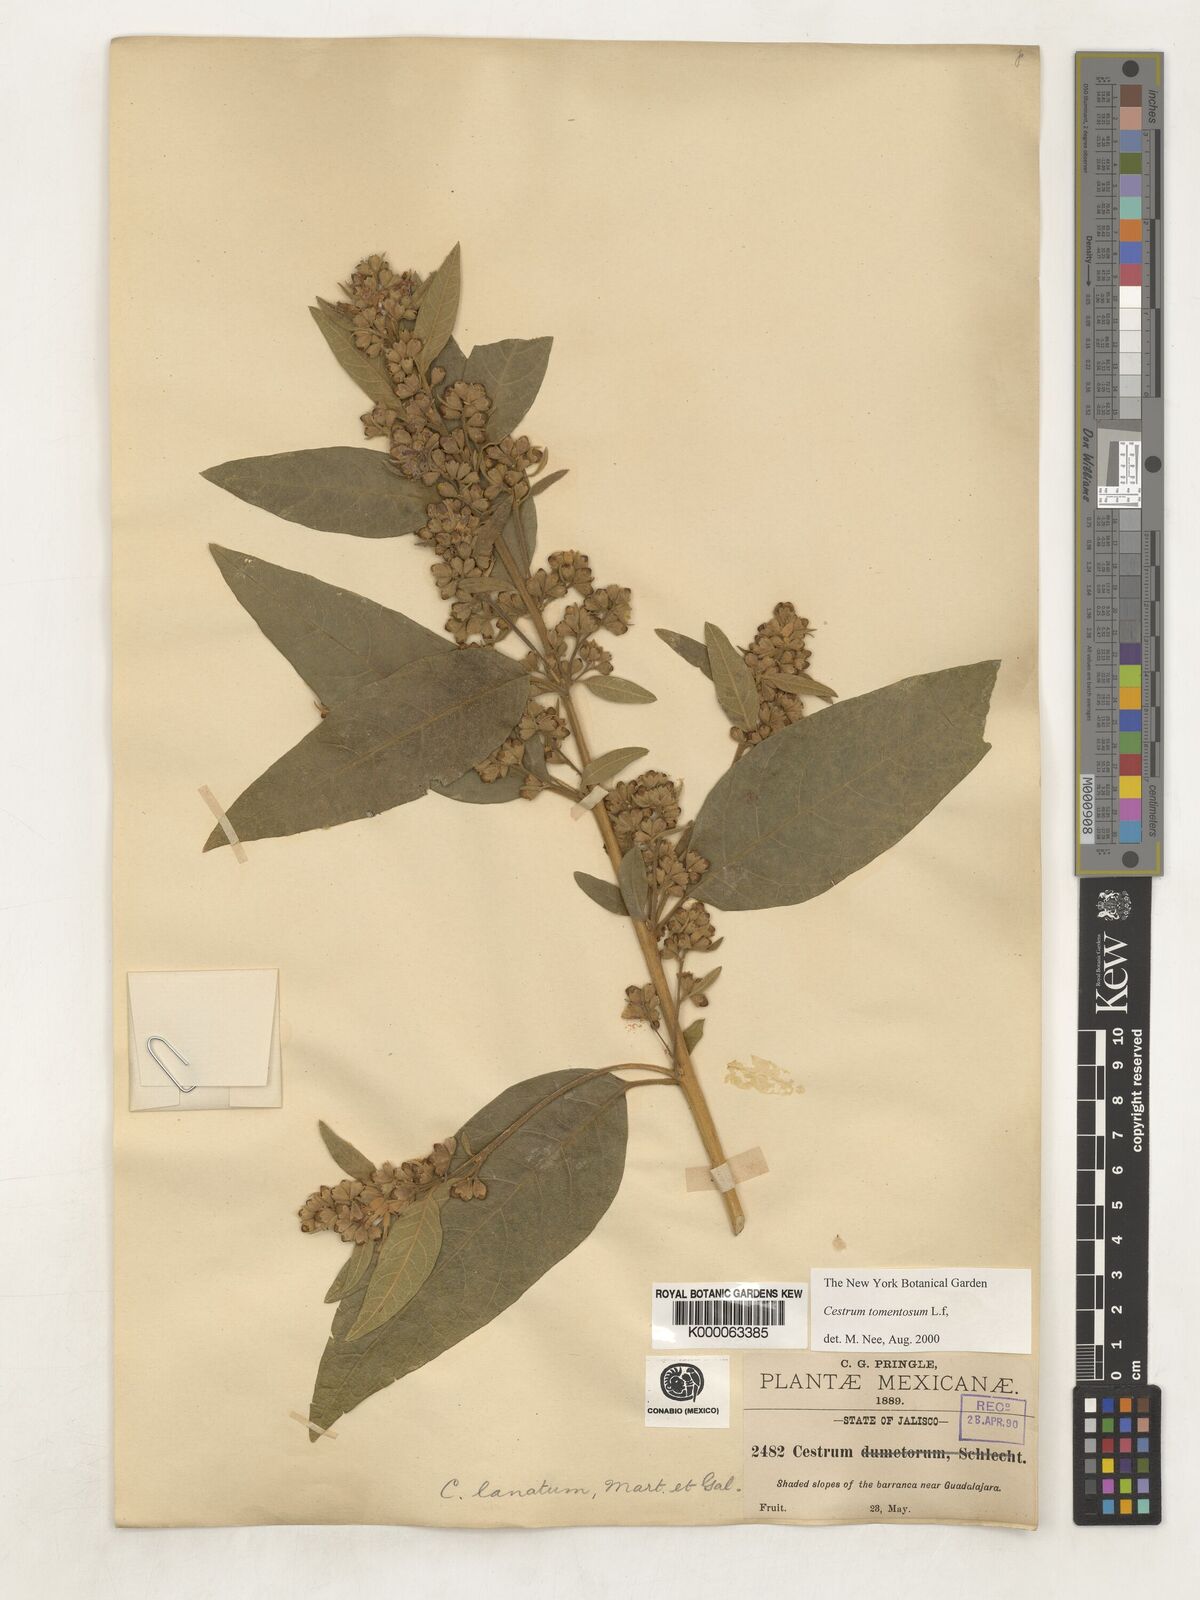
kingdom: Plantae
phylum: Tracheophyta
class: Magnoliopsida
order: Solanales
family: Solanaceae
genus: Cestrum
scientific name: Cestrum tomentosum
